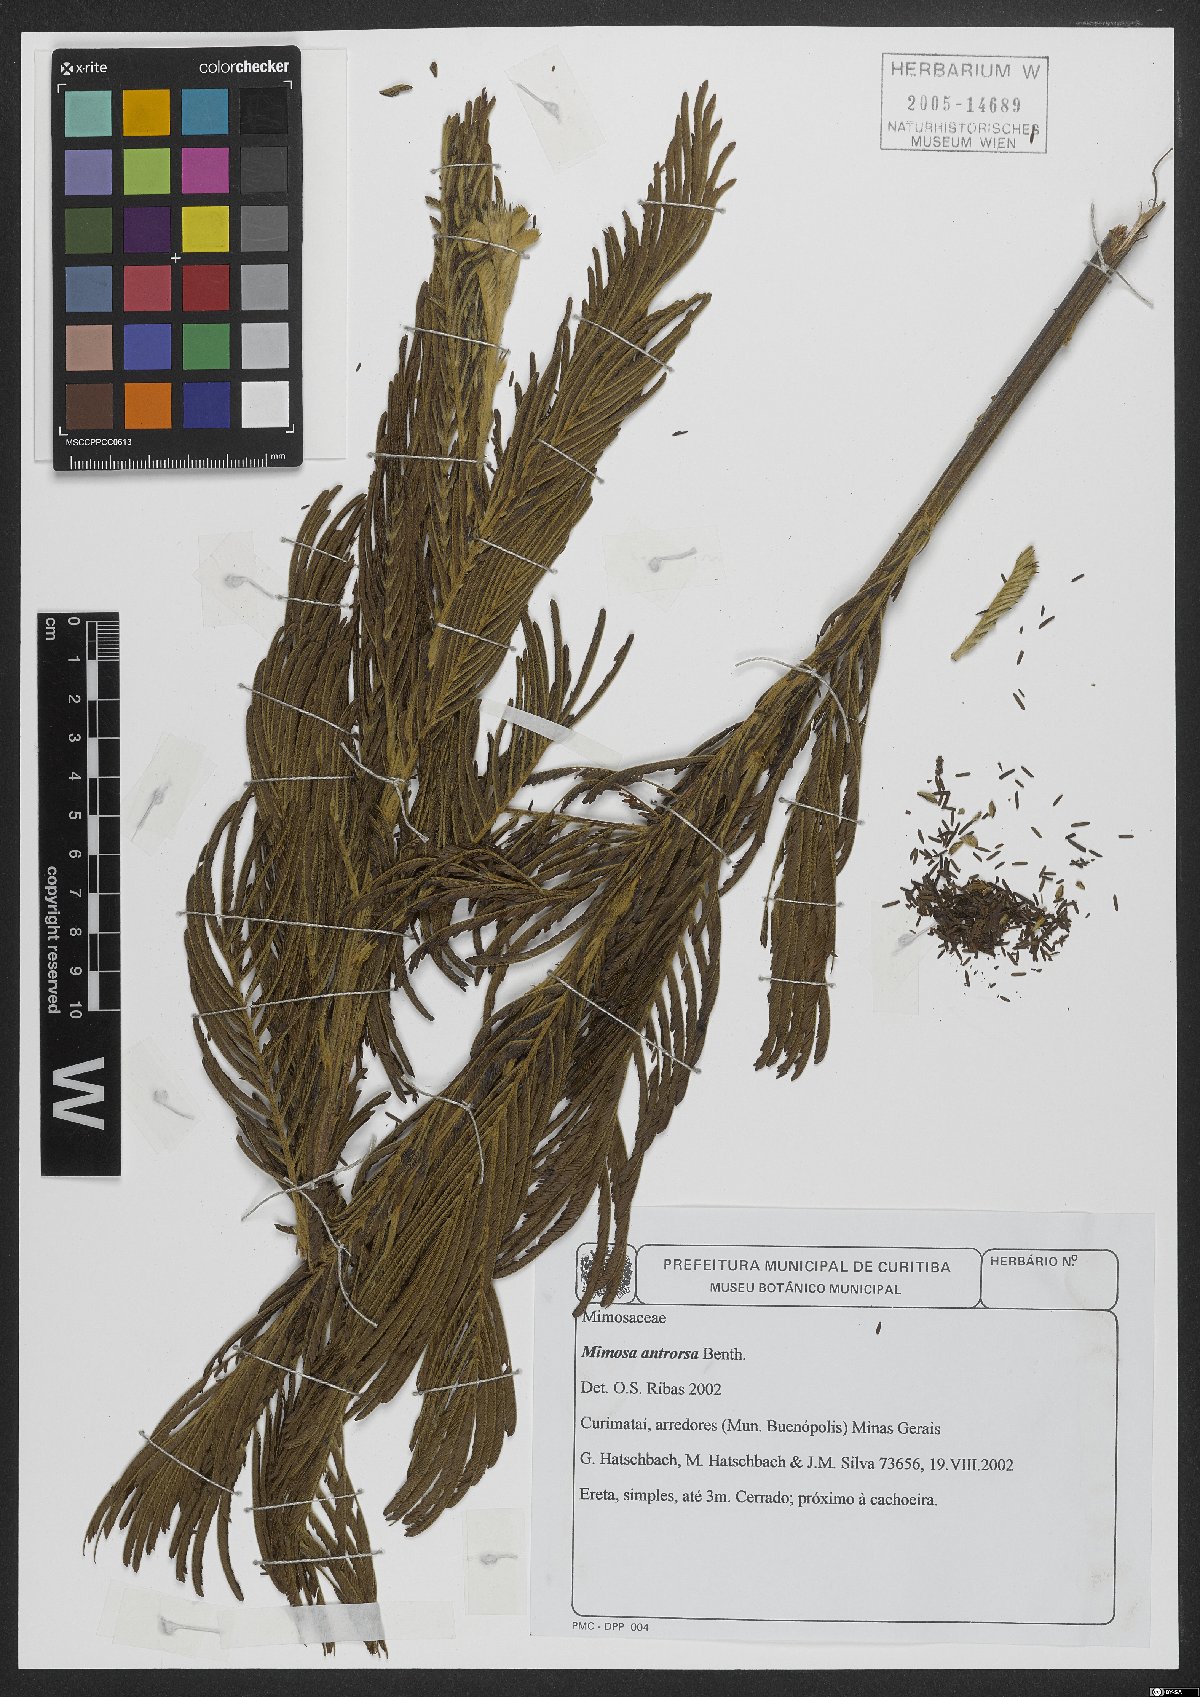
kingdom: Plantae
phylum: Tracheophyta
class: Magnoliopsida
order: Fabales
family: Fabaceae
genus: Mimosa
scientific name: Mimosa antrorsa
